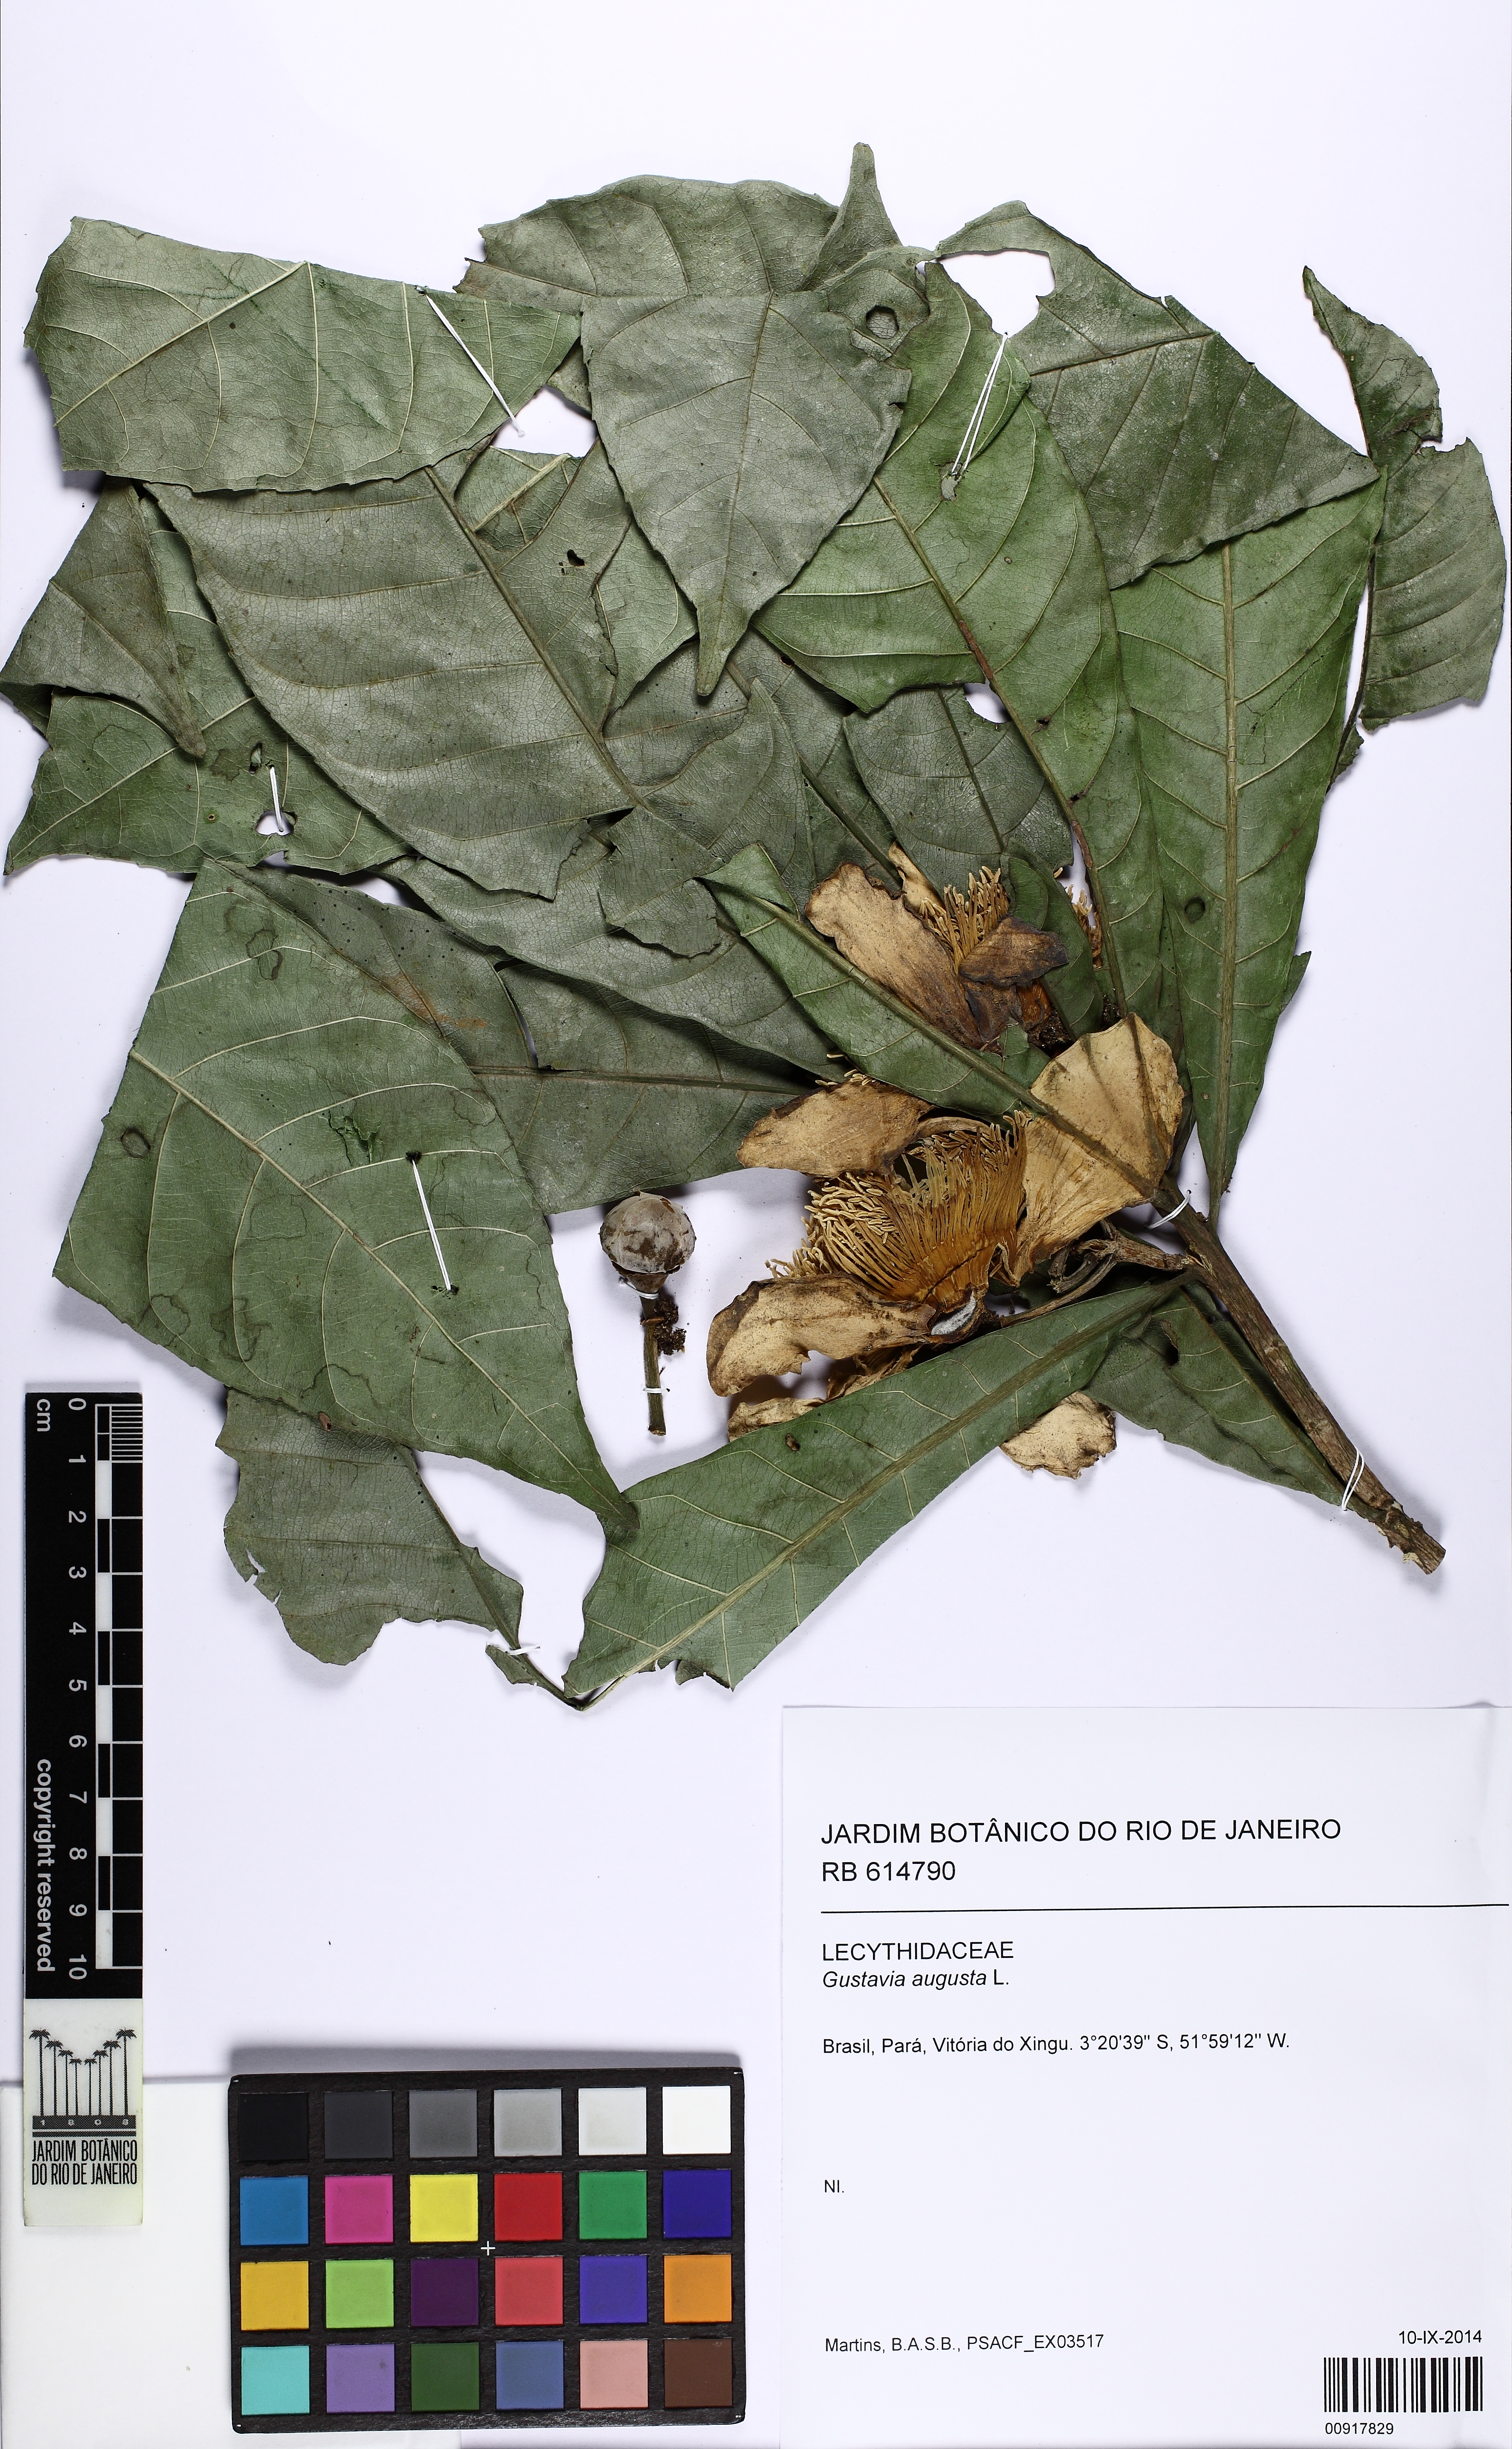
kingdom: Plantae
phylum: Tracheophyta
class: Magnoliopsida
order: Ericales
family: Lecythidaceae
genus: Gustavia
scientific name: Gustavia augusta
